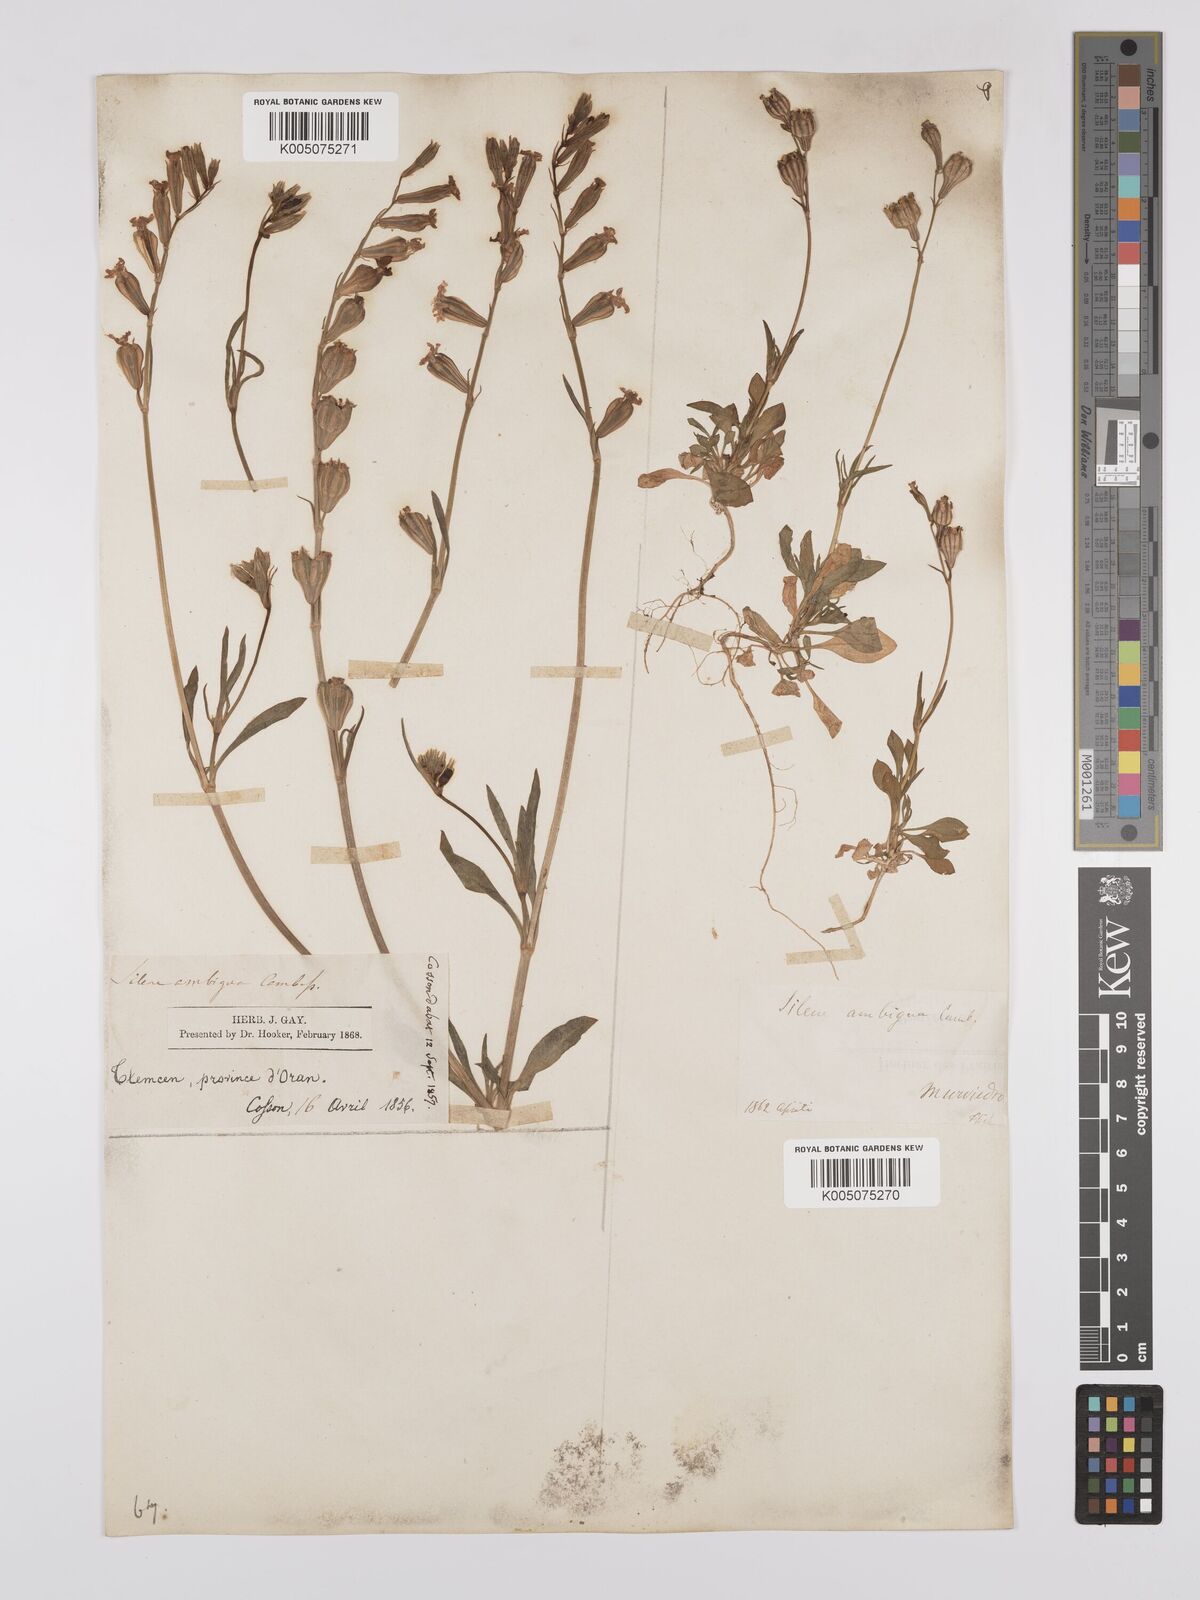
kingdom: Plantae
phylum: Tracheophyta
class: Magnoliopsida
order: Caryophyllales
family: Caryophyllaceae
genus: Silene
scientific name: Silene secundiflora
